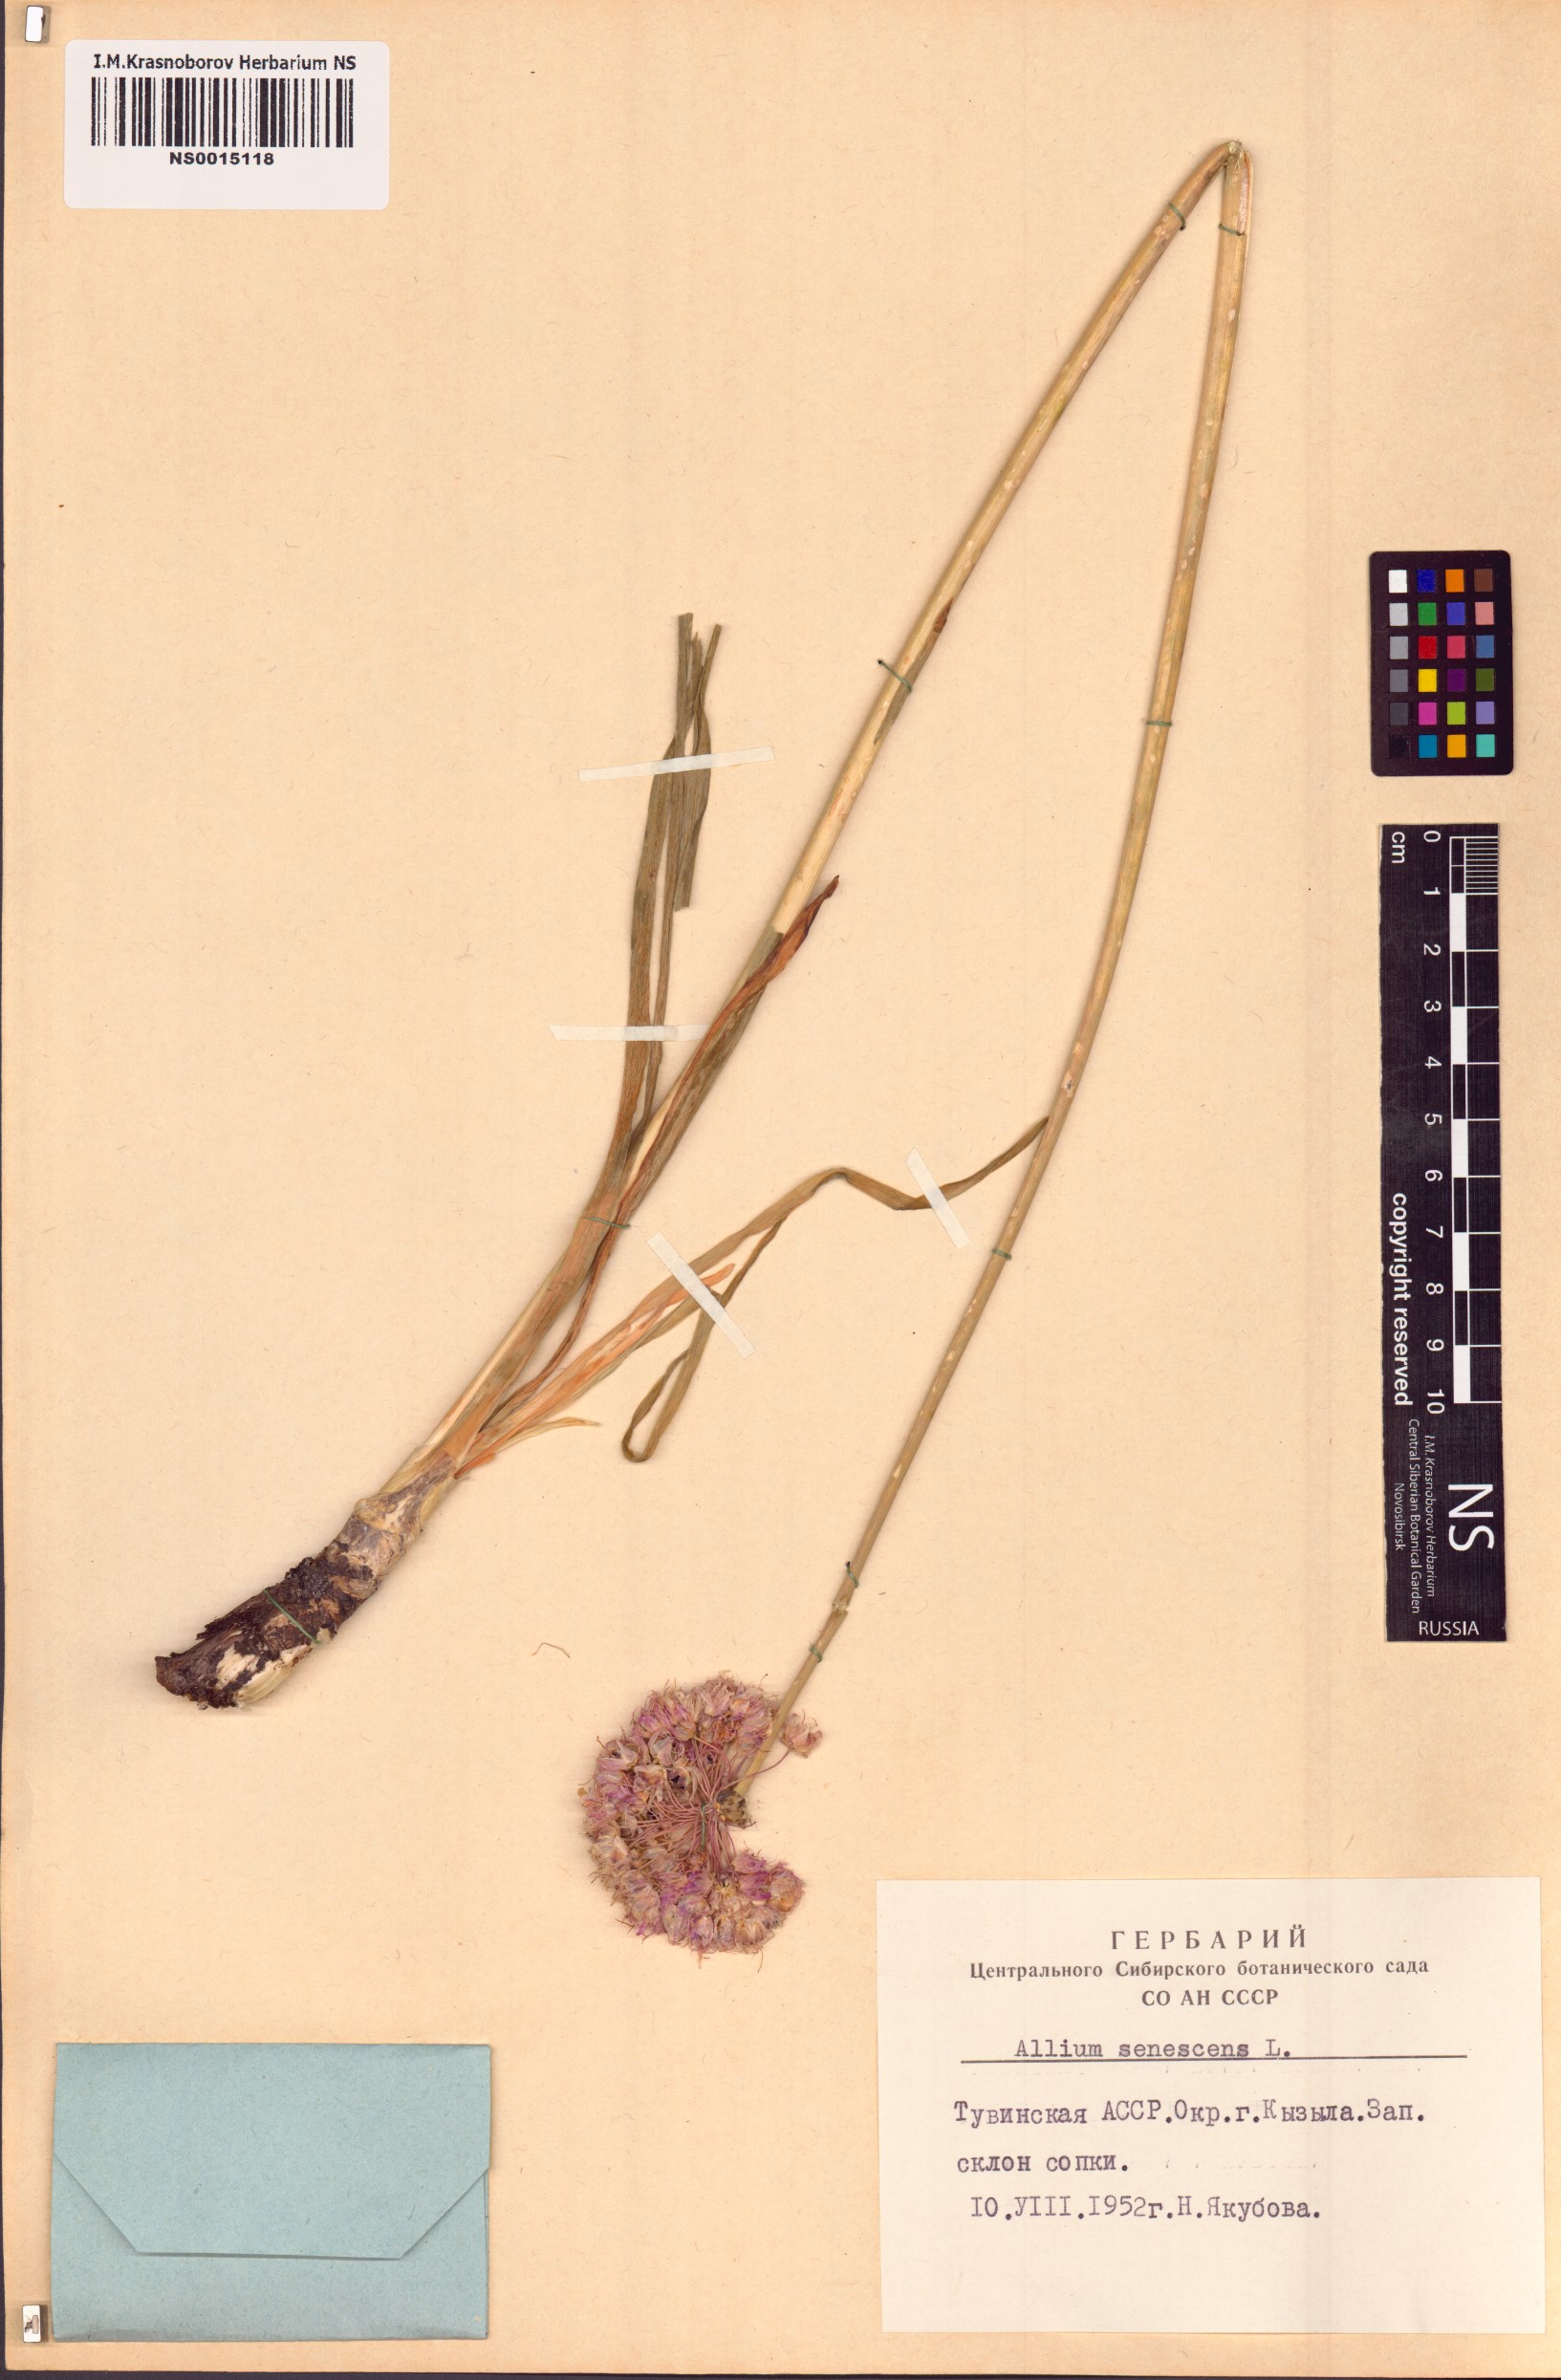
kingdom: Plantae
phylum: Tracheophyta
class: Liliopsida
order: Asparagales
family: Amaryllidaceae
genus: Allium
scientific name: Allium senescens
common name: German garlic
